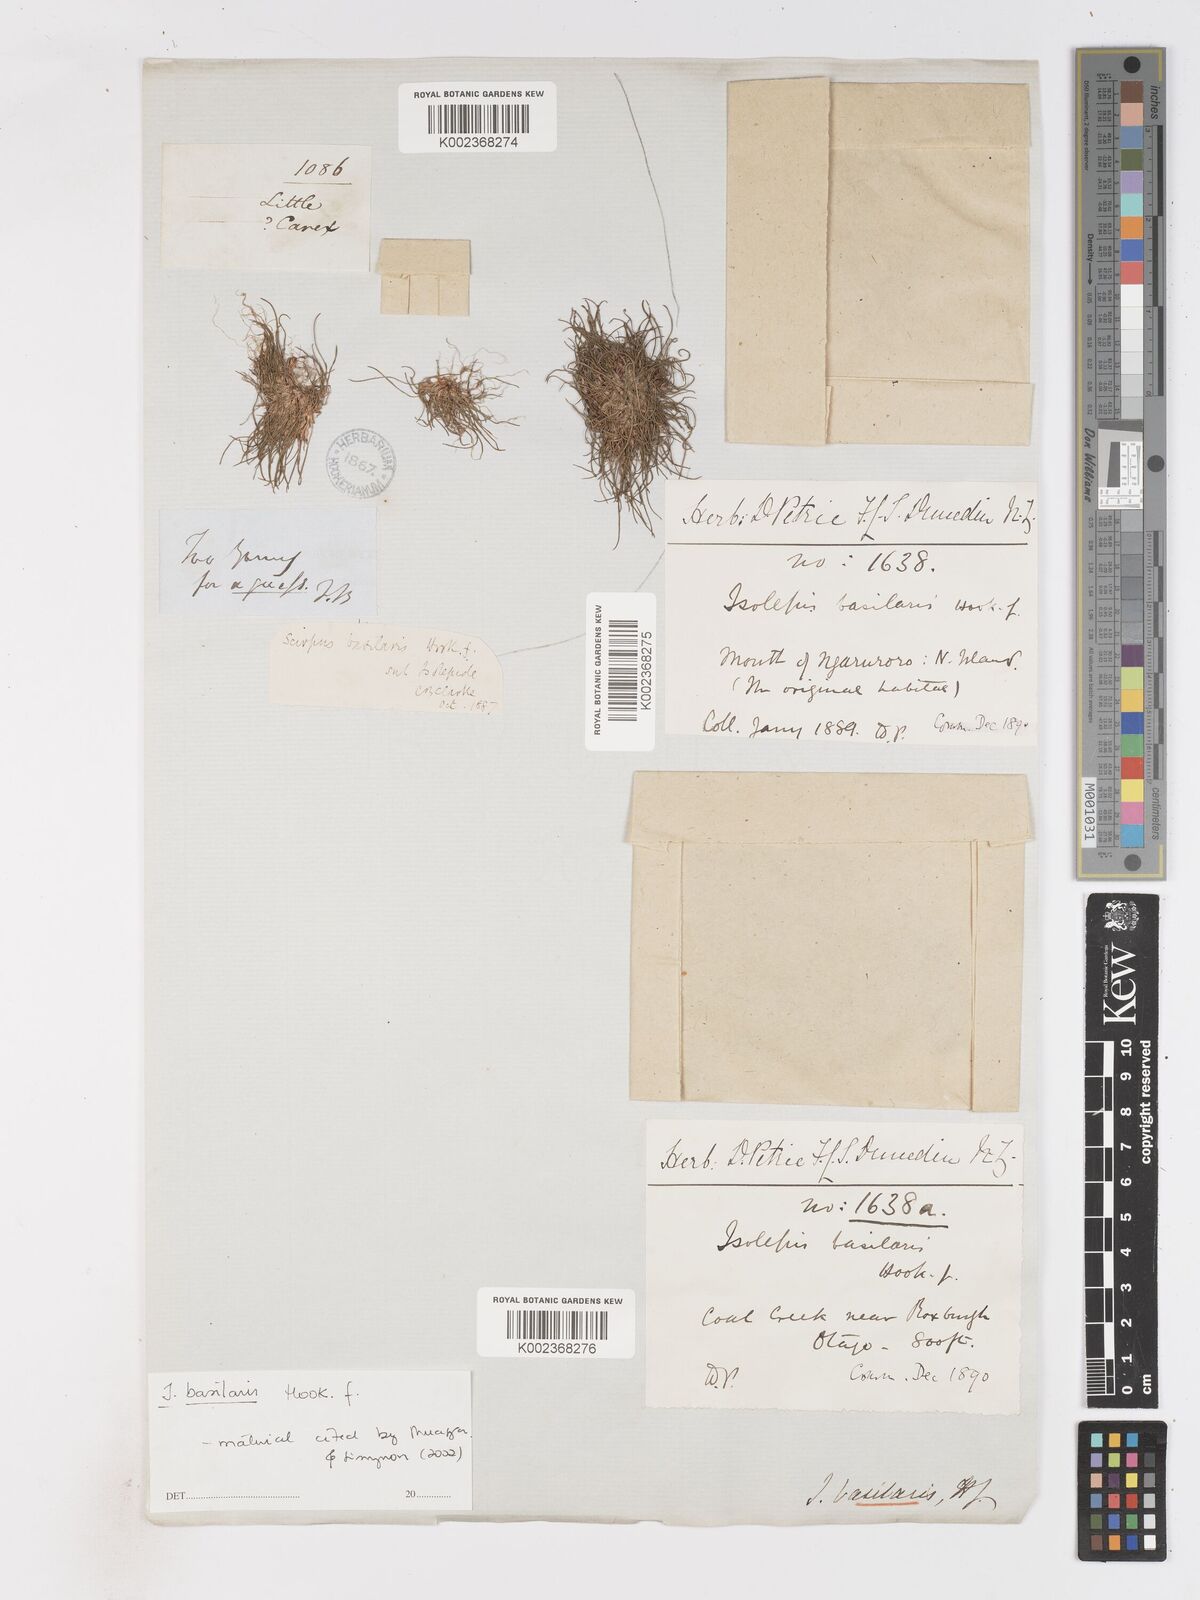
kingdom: Plantae
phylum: Tracheophyta
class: Liliopsida
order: Poales
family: Cyperaceae
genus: Isolepis
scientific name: Isolepis basilaris
